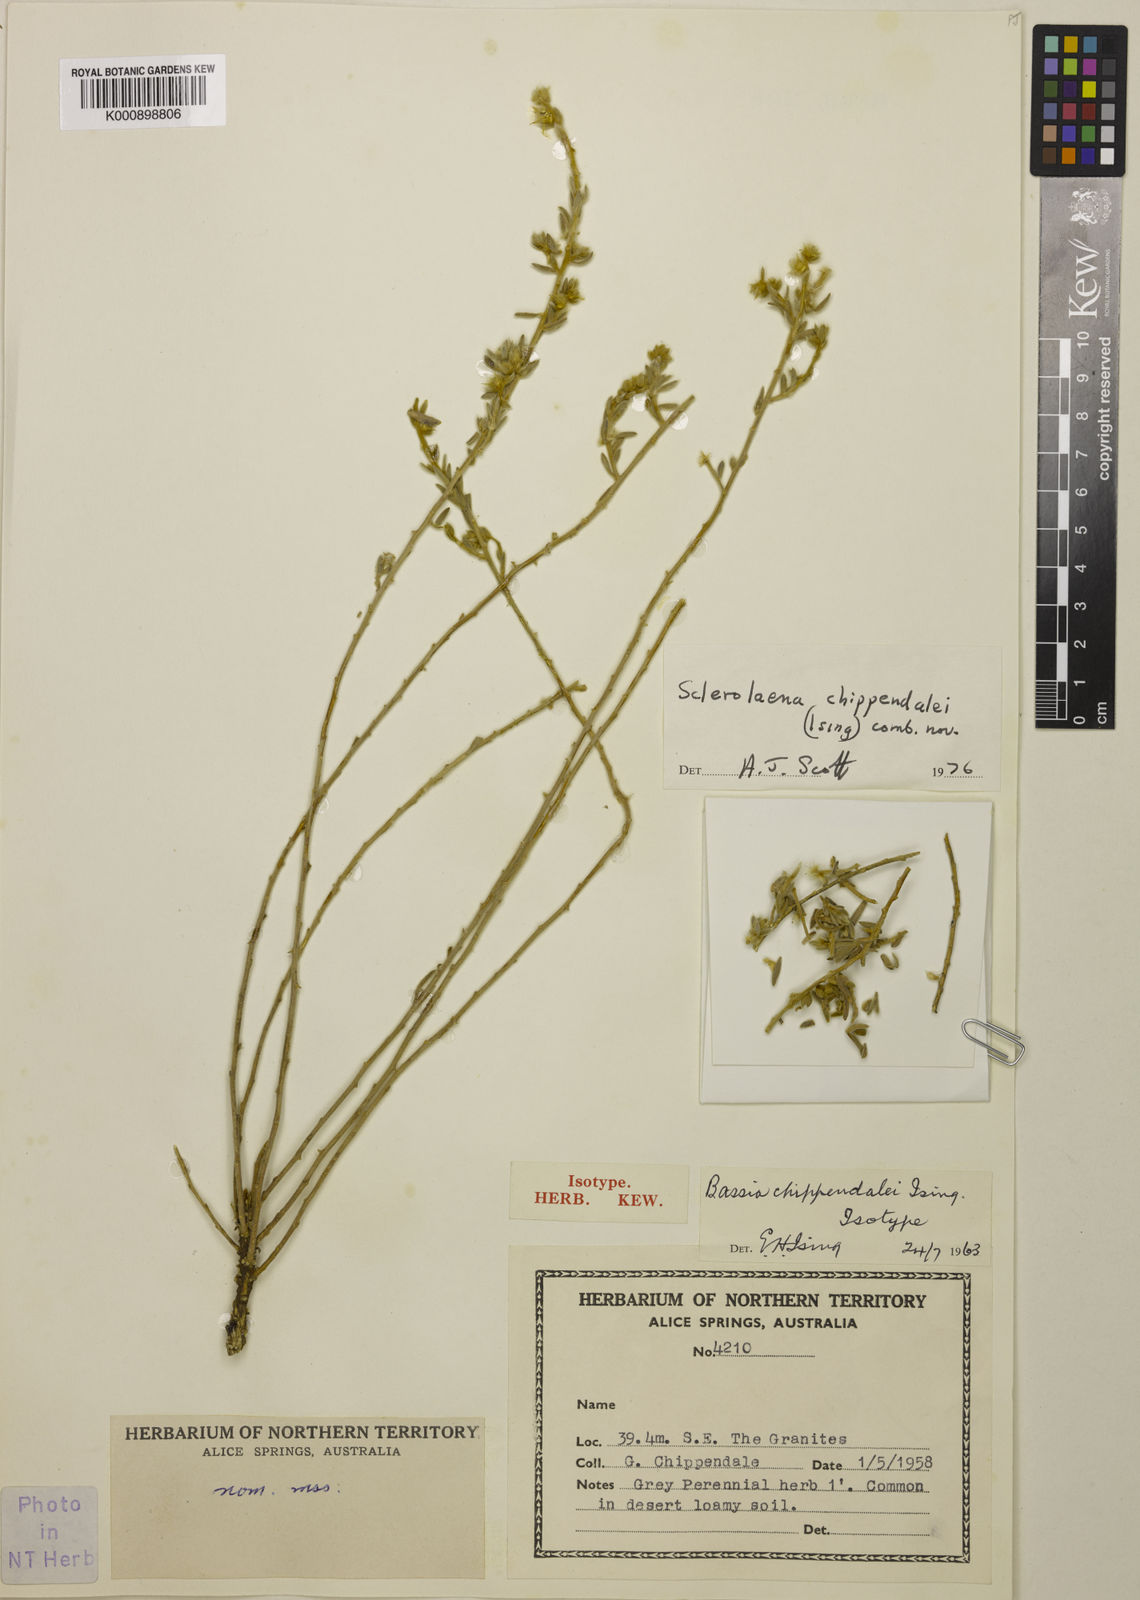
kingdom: Plantae
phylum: Tracheophyta
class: Magnoliopsida
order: Caryophyllales
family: Amaranthaceae
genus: Bassia
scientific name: Bassia
